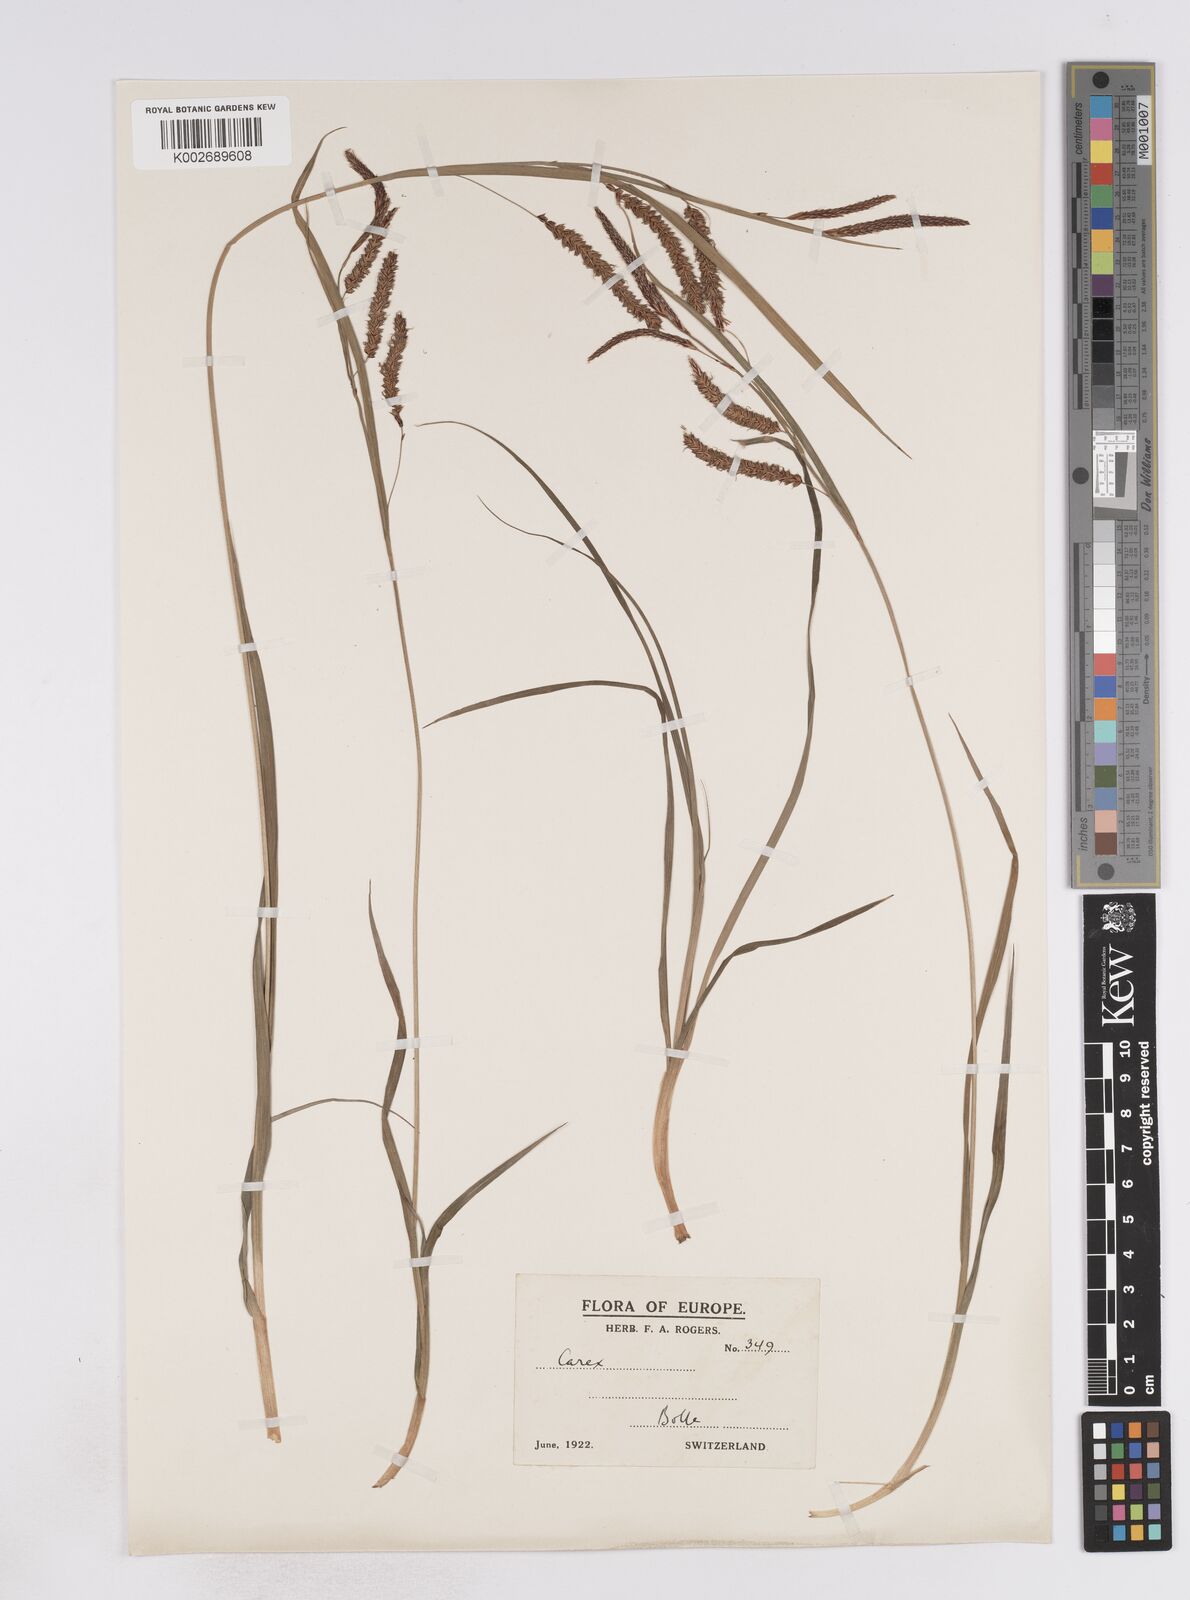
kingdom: Plantae
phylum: Tracheophyta
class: Liliopsida
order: Poales
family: Cyperaceae
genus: Carex
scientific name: Carex flacca
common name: Glaucous sedge
